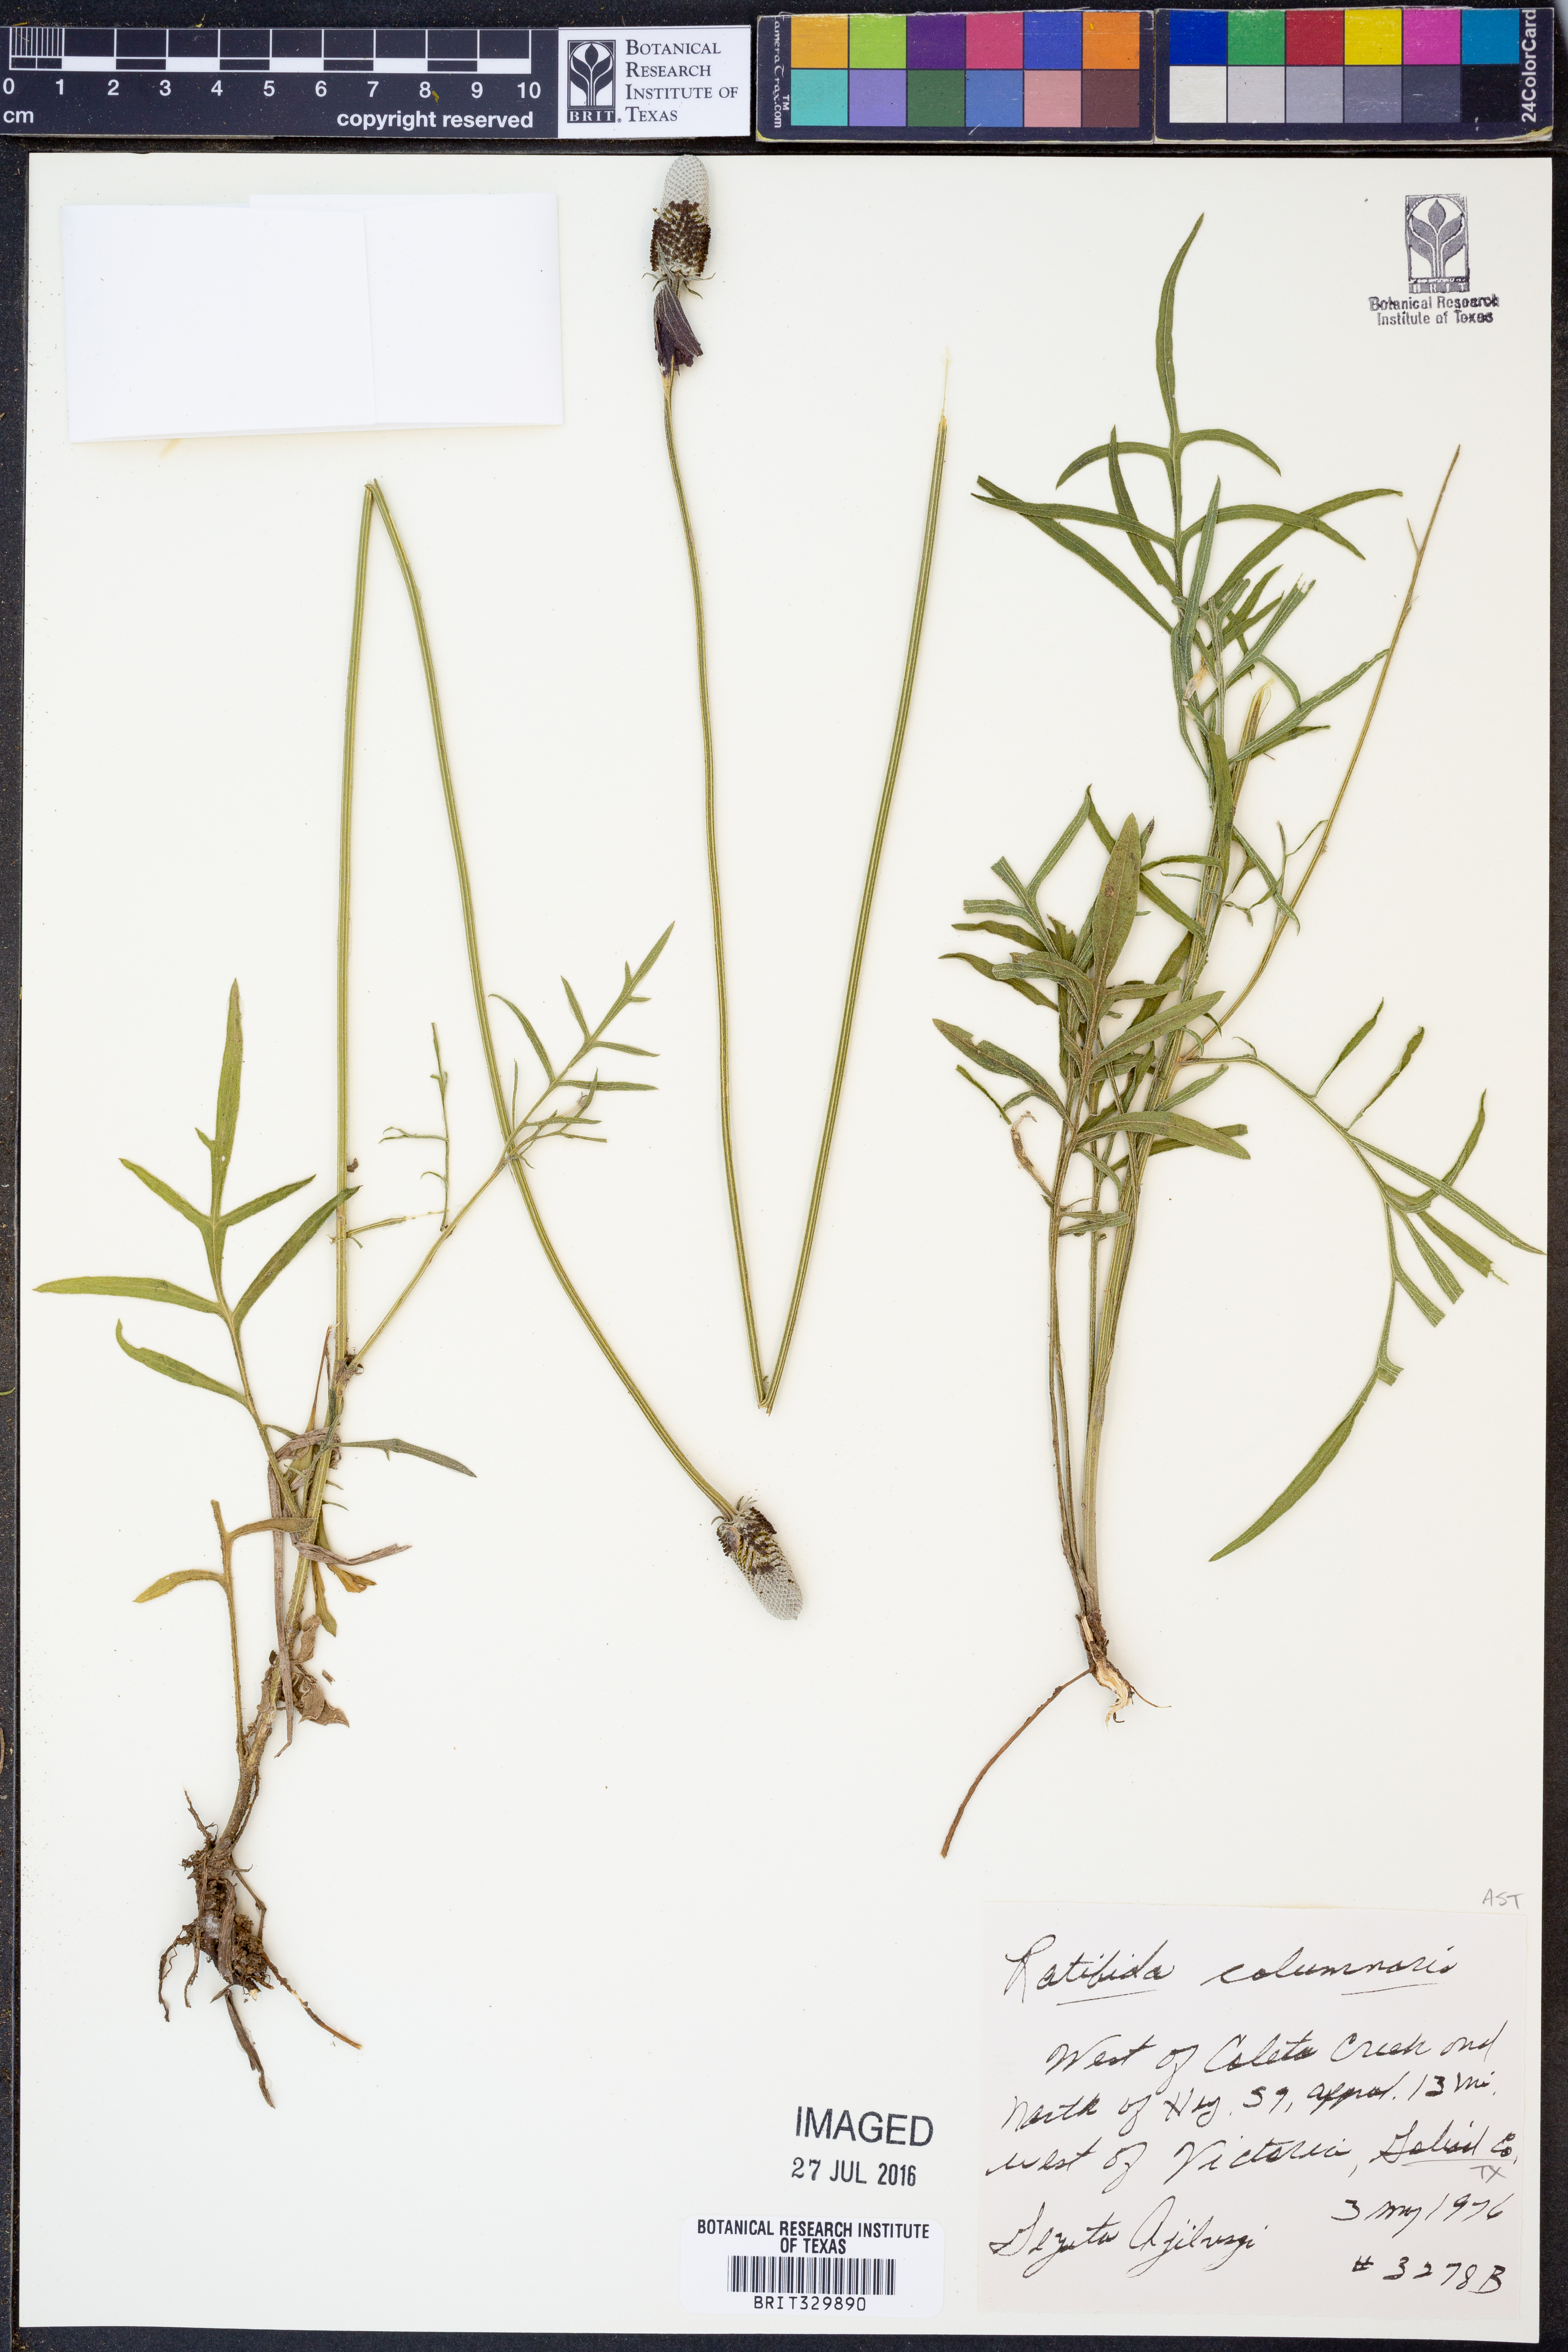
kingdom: Plantae
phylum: Tracheophyta
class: Magnoliopsida
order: Asterales
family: Asteraceae
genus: Ratibida
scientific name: Ratibida columnifera
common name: Prairie coneflower
